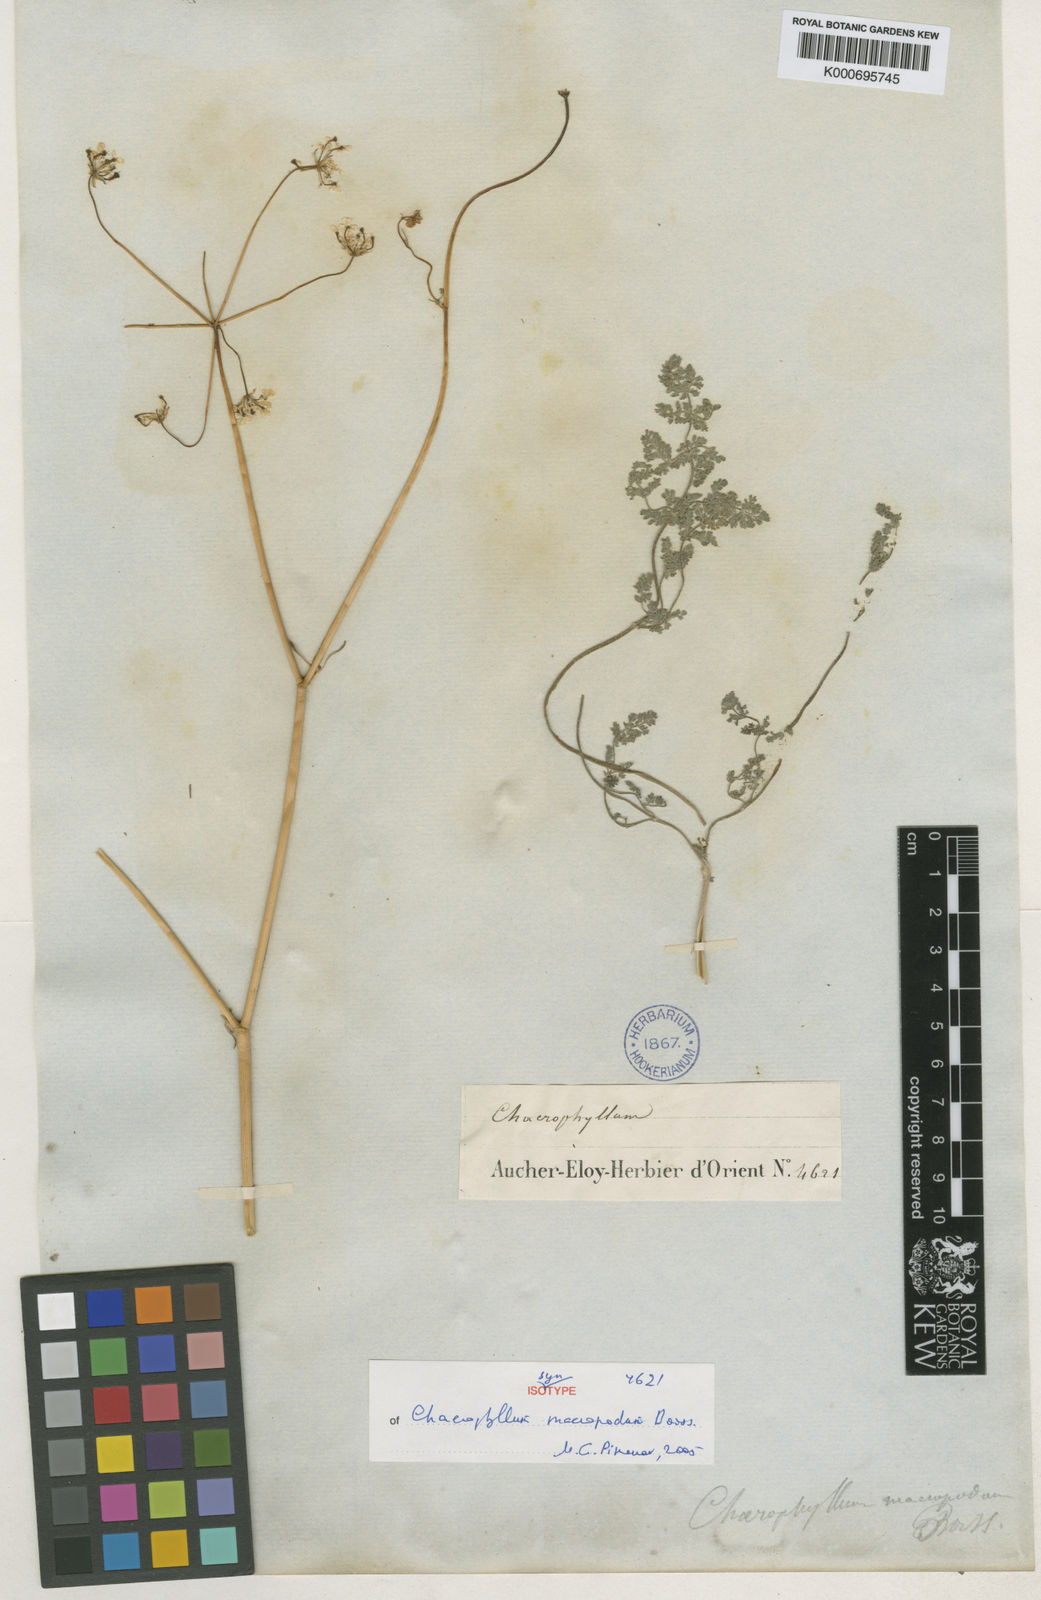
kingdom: Plantae
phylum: Tracheophyta
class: Magnoliopsida
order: Apiales
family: Apiaceae
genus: Chaerophyllum
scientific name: Chaerophyllum macropodum
